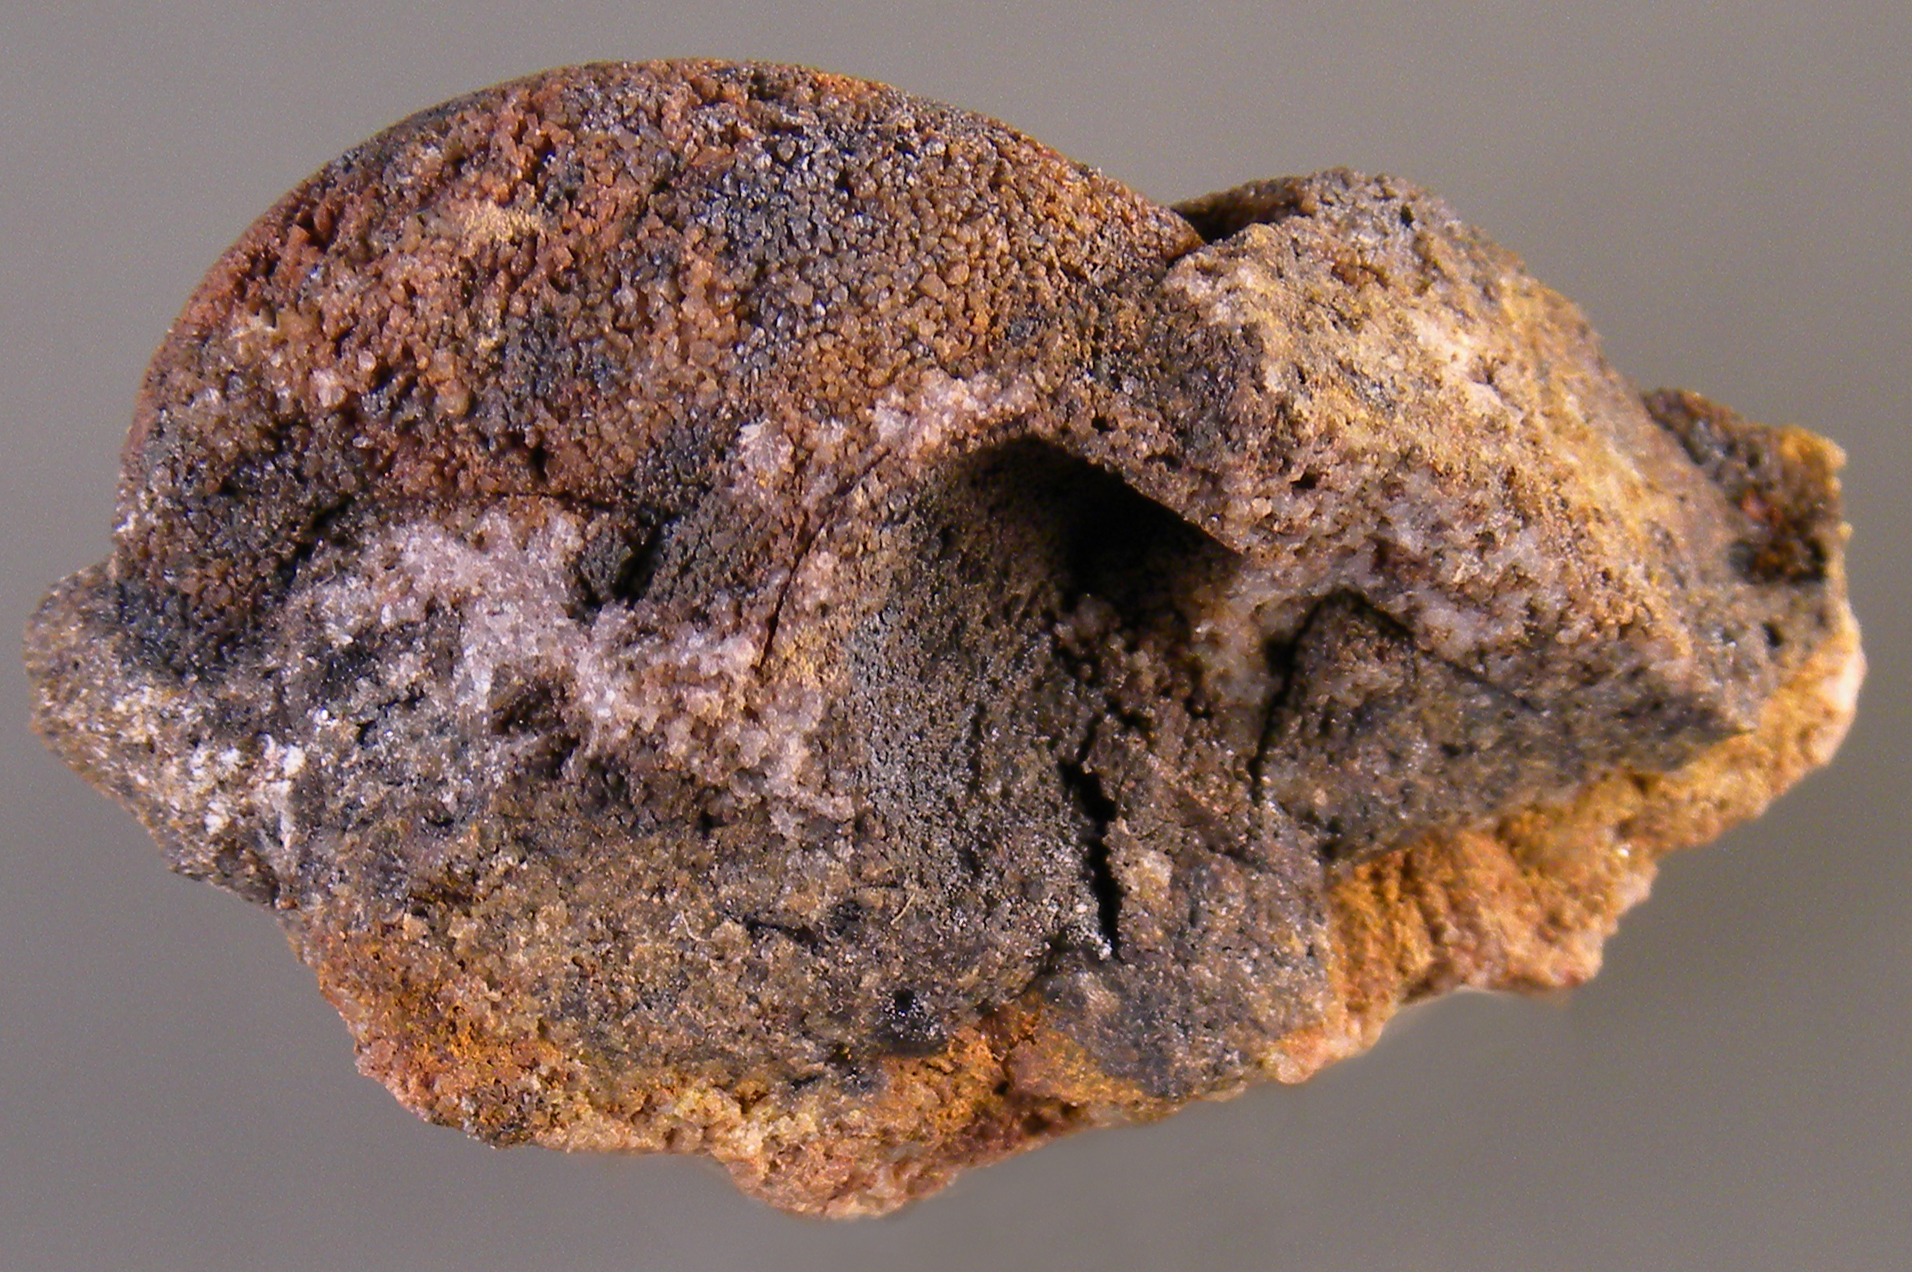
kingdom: Animalia
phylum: Mollusca
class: Gastropoda
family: Platyceratidae
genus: Platyceras
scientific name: Platyceras
